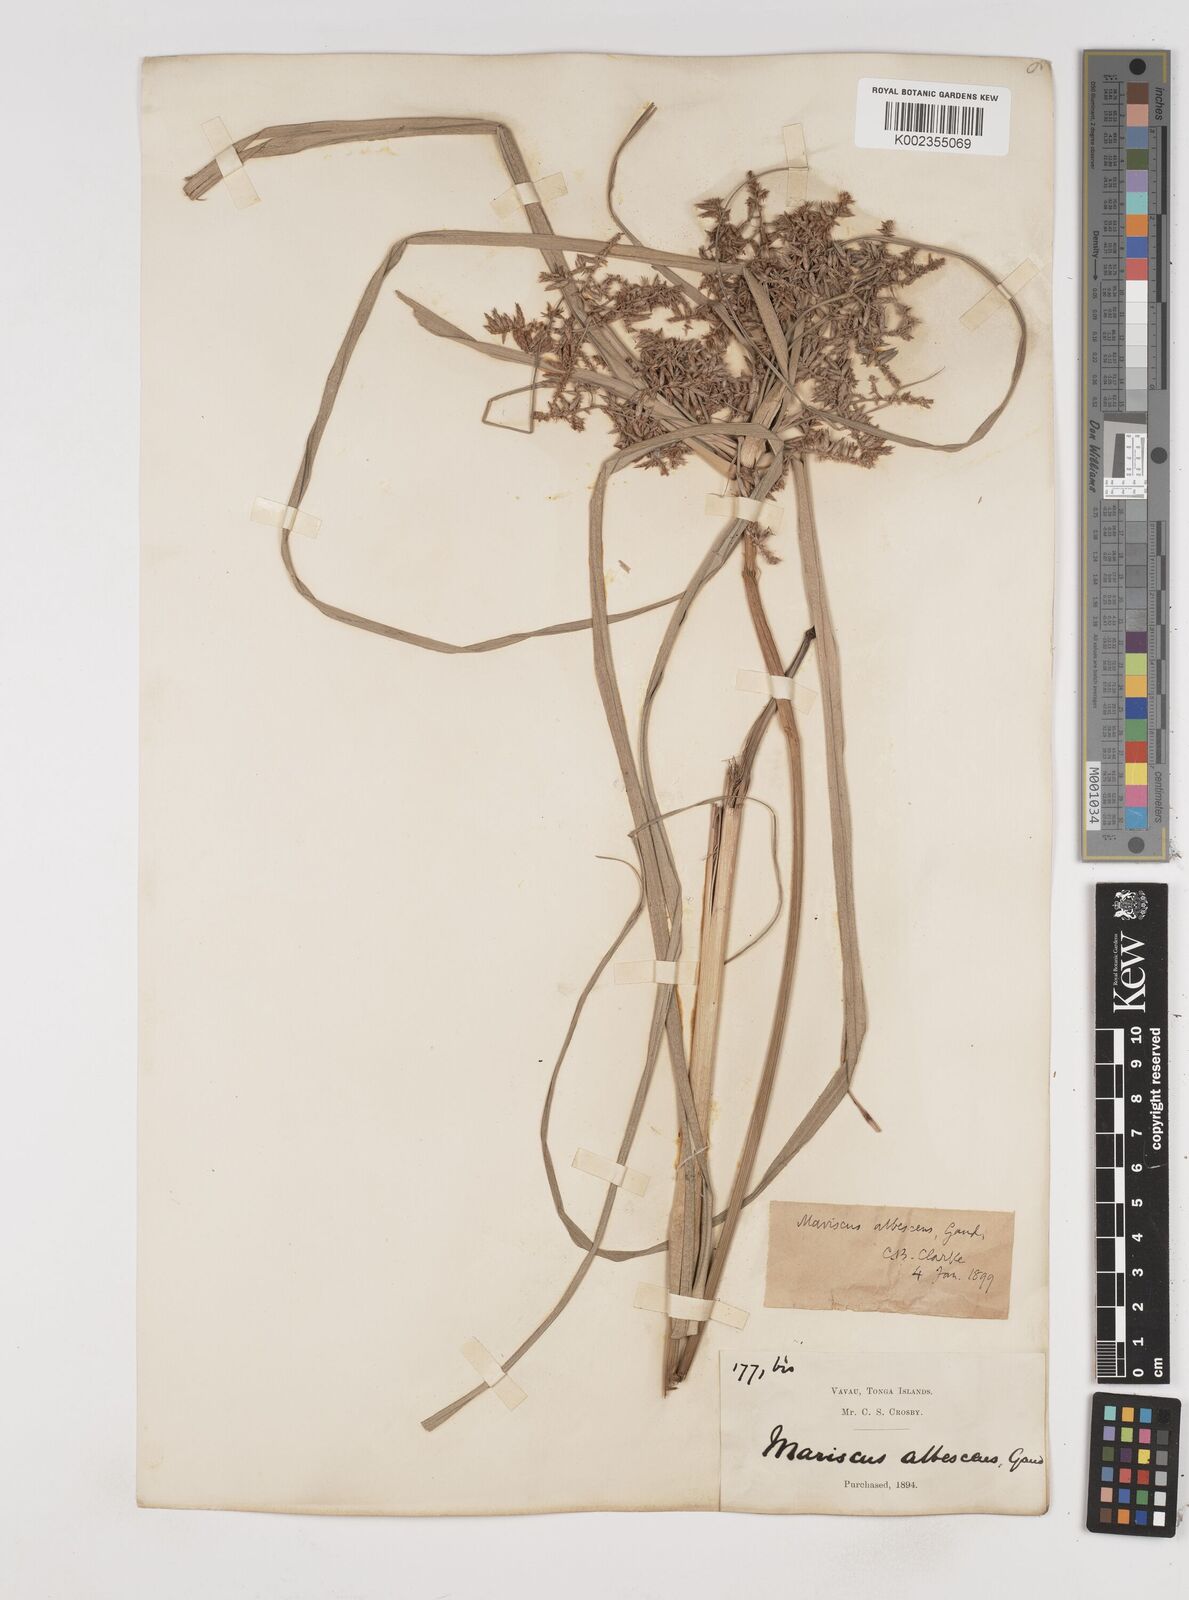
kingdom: Plantae
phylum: Tracheophyta
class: Liliopsida
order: Poales
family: Cyperaceae
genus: Cyperus
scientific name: Cyperus javanicus
